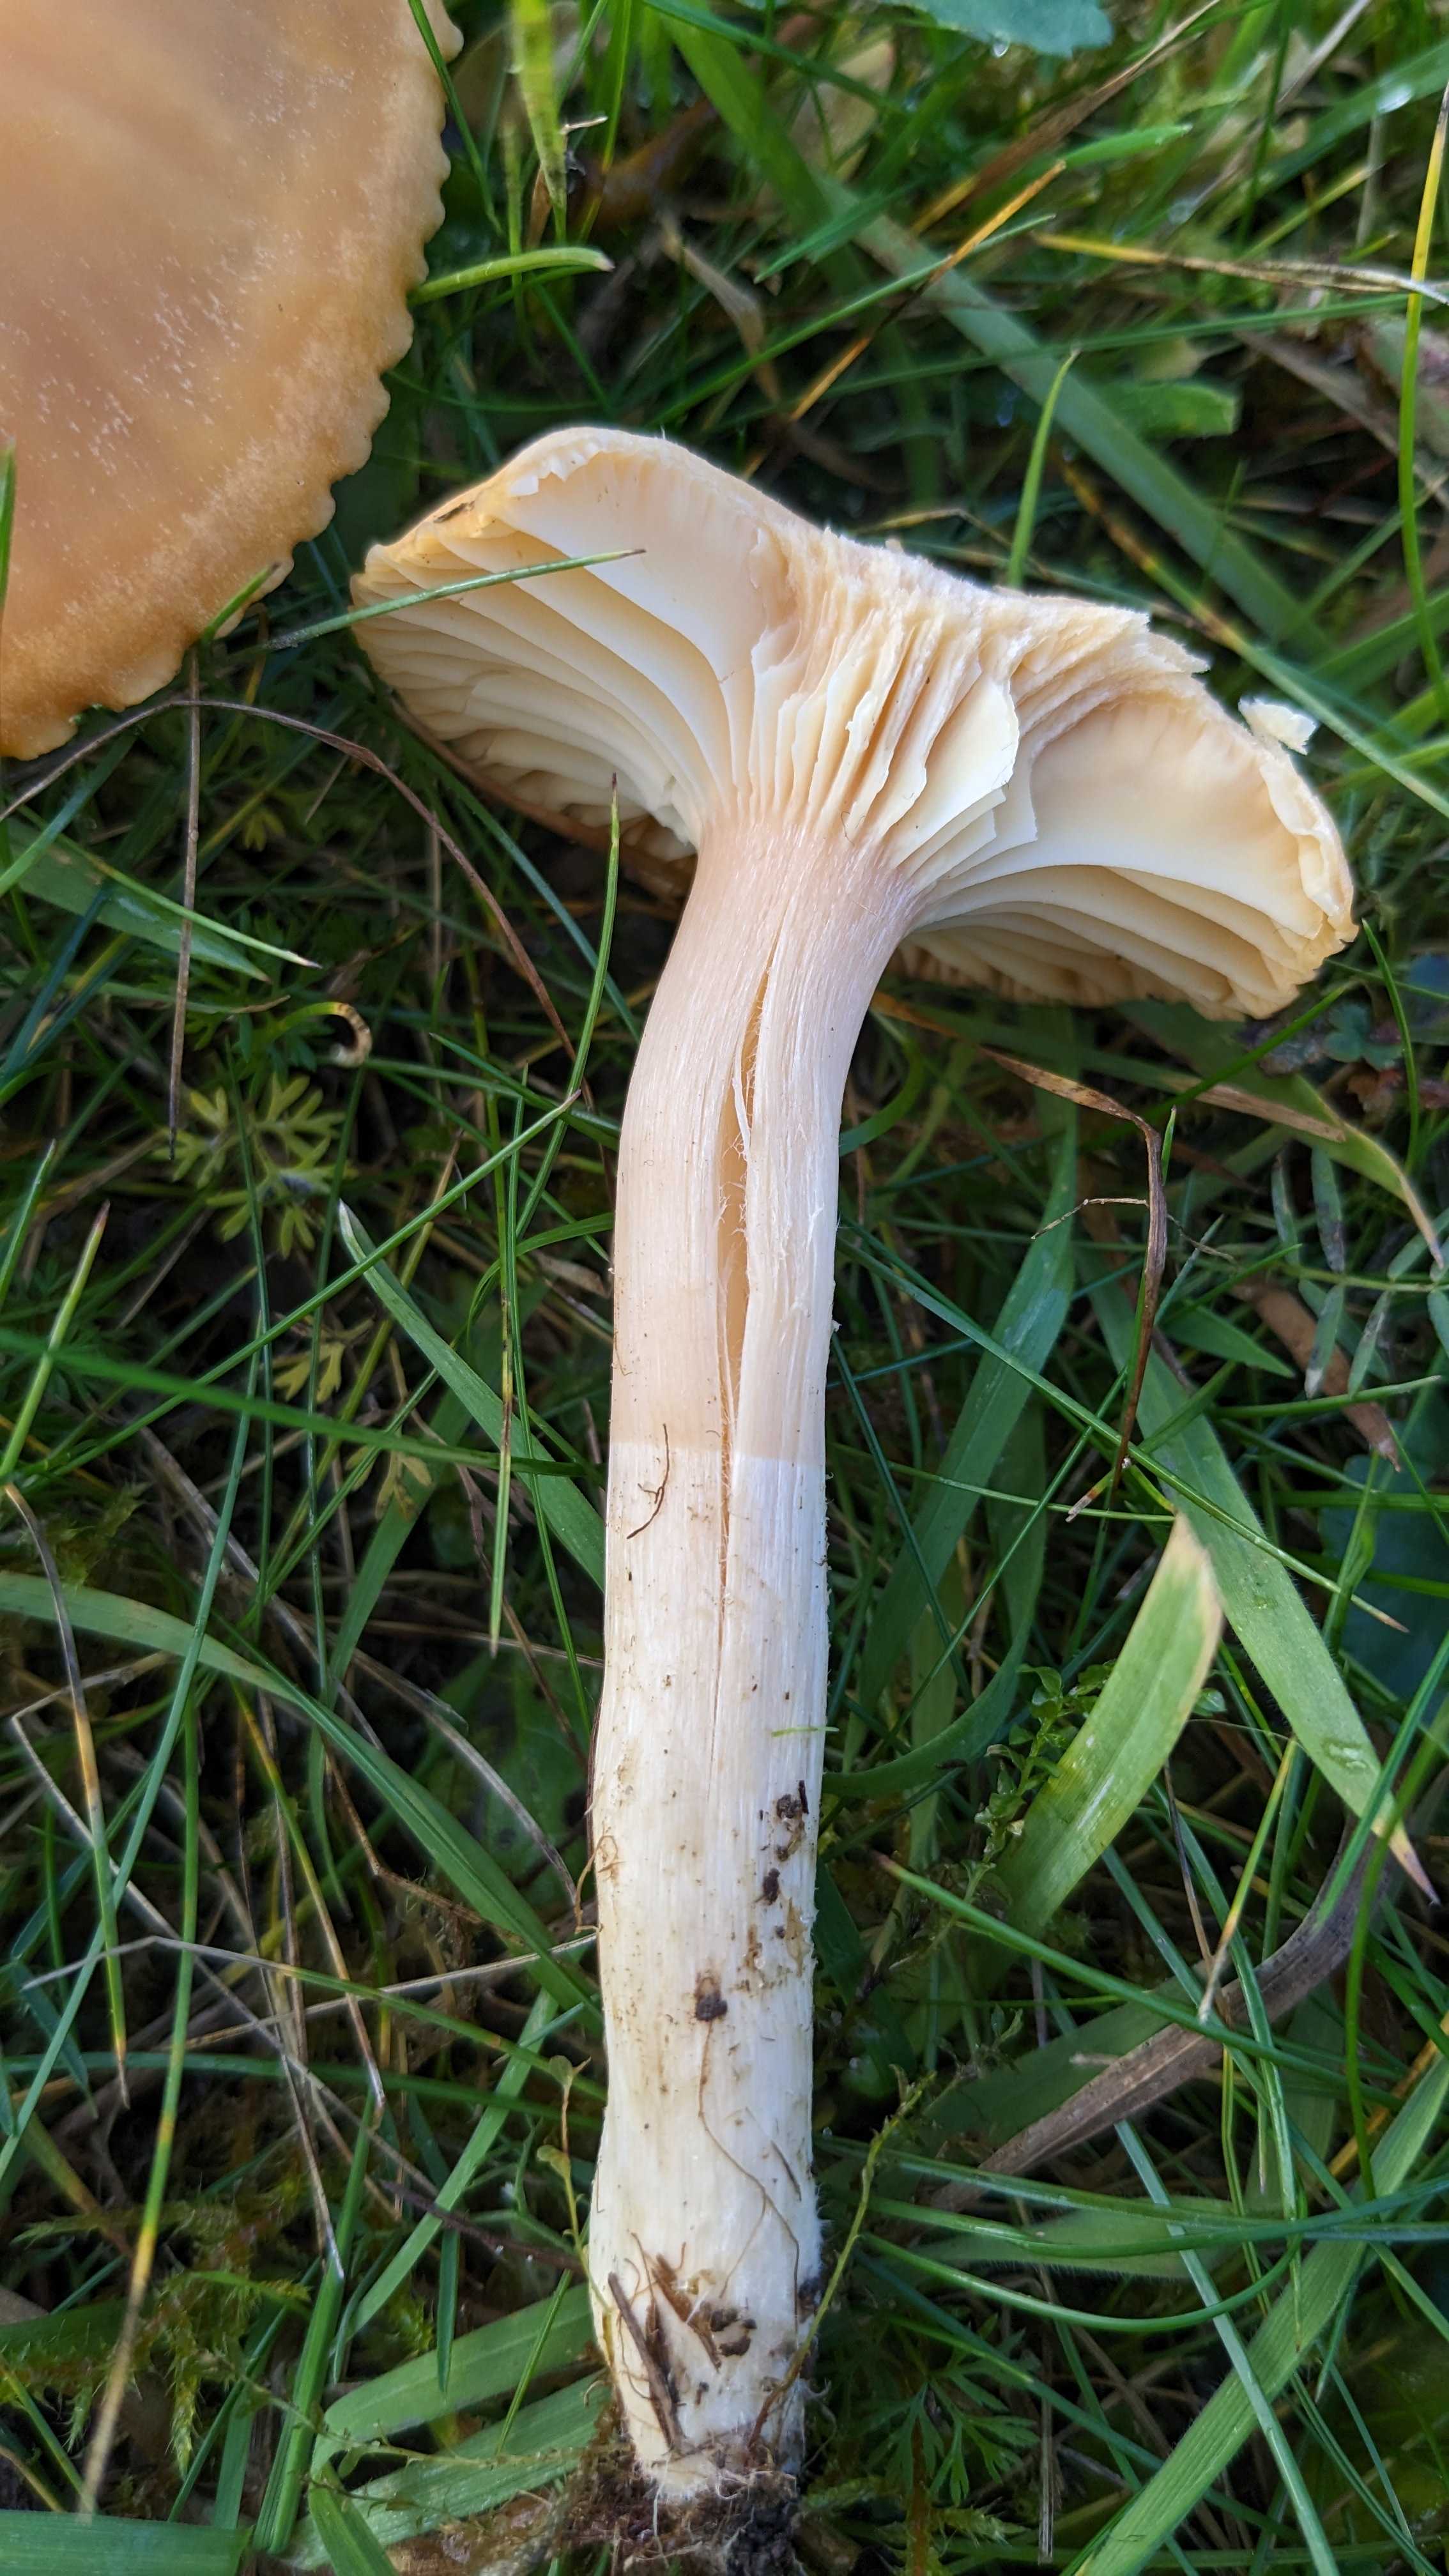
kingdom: Fungi
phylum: Basidiomycota
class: Agaricomycetes
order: Agaricales
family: Hygrophoraceae
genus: Cuphophyllus
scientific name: Cuphophyllus pratensis
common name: eng-vokshat
